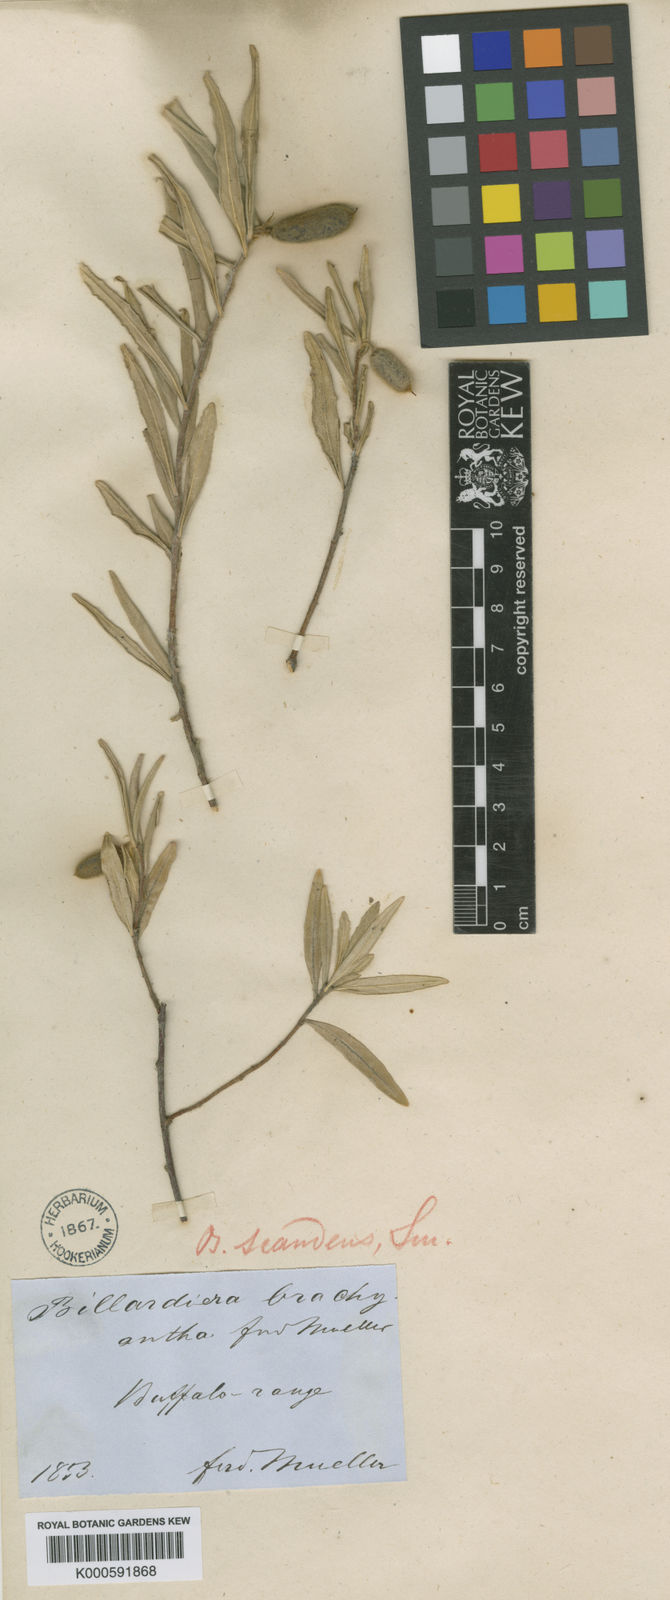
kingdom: Plantae
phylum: Tracheophyta
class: Magnoliopsida
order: Apiales
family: Pittosporaceae
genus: Billardiera
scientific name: Billardiera scandens
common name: Apple-berry
